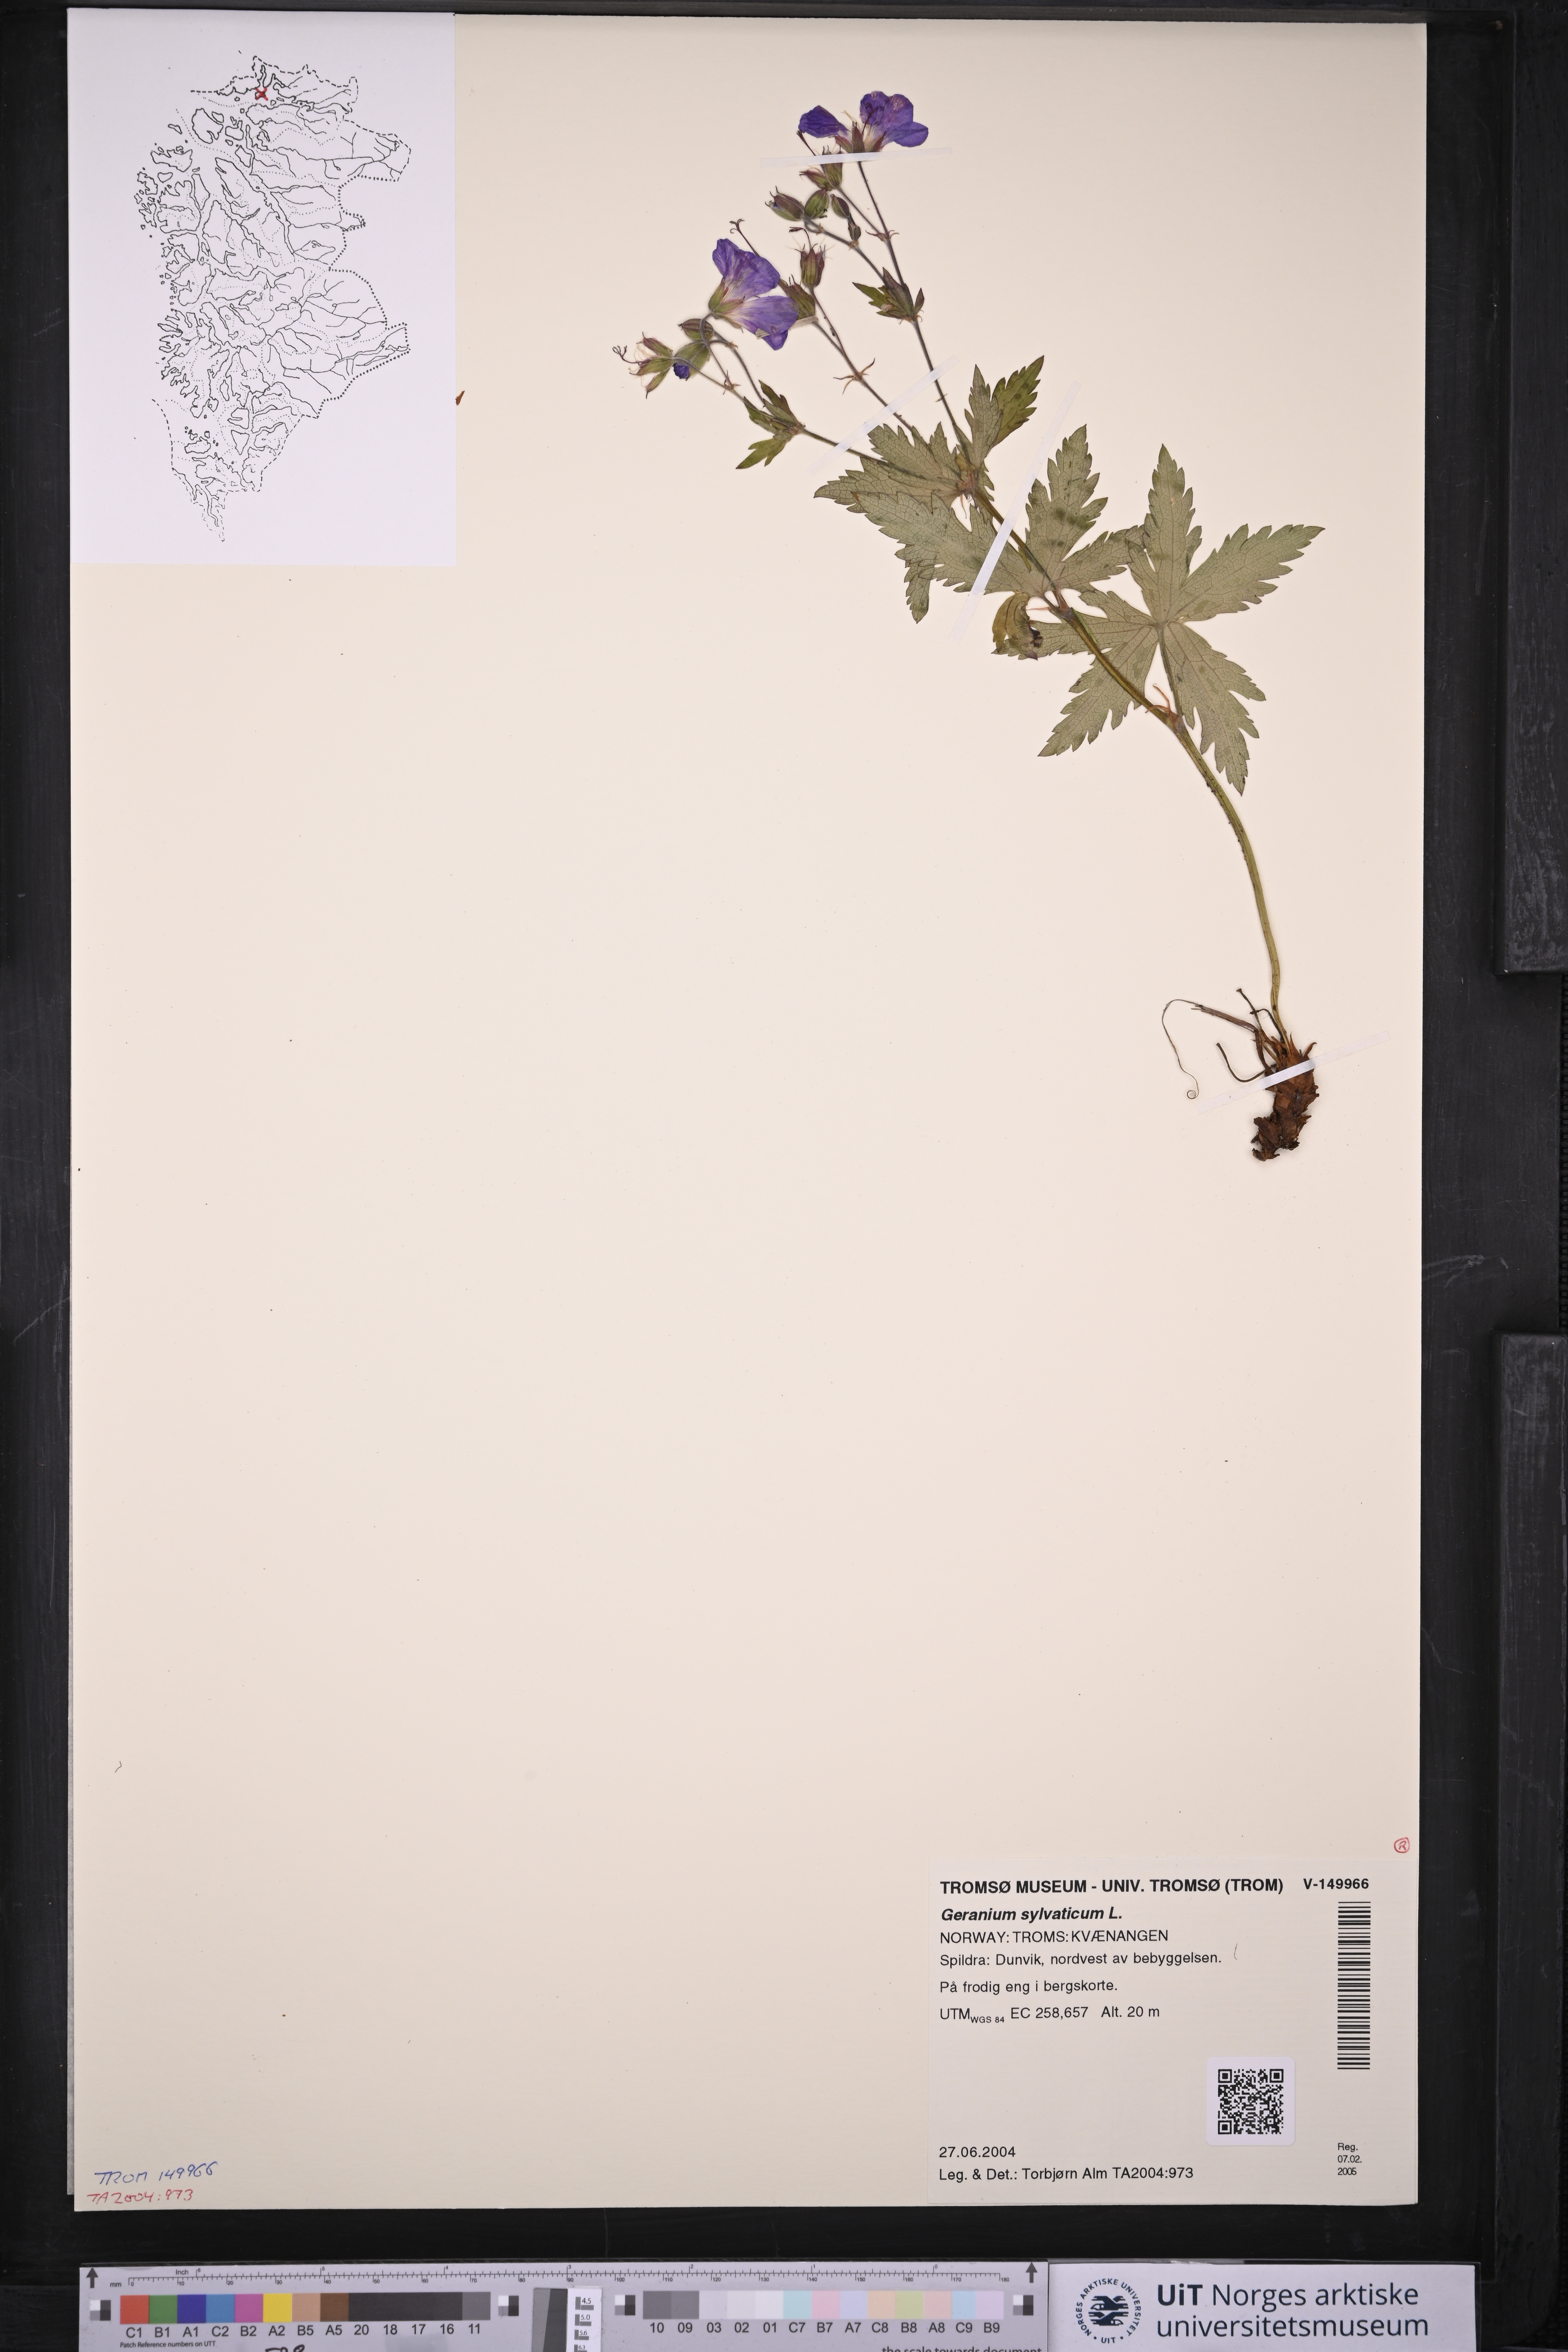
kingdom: Plantae
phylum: Tracheophyta
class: Magnoliopsida
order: Geraniales
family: Geraniaceae
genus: Geranium
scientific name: Geranium sylvaticum
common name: Wood crane's-bill
